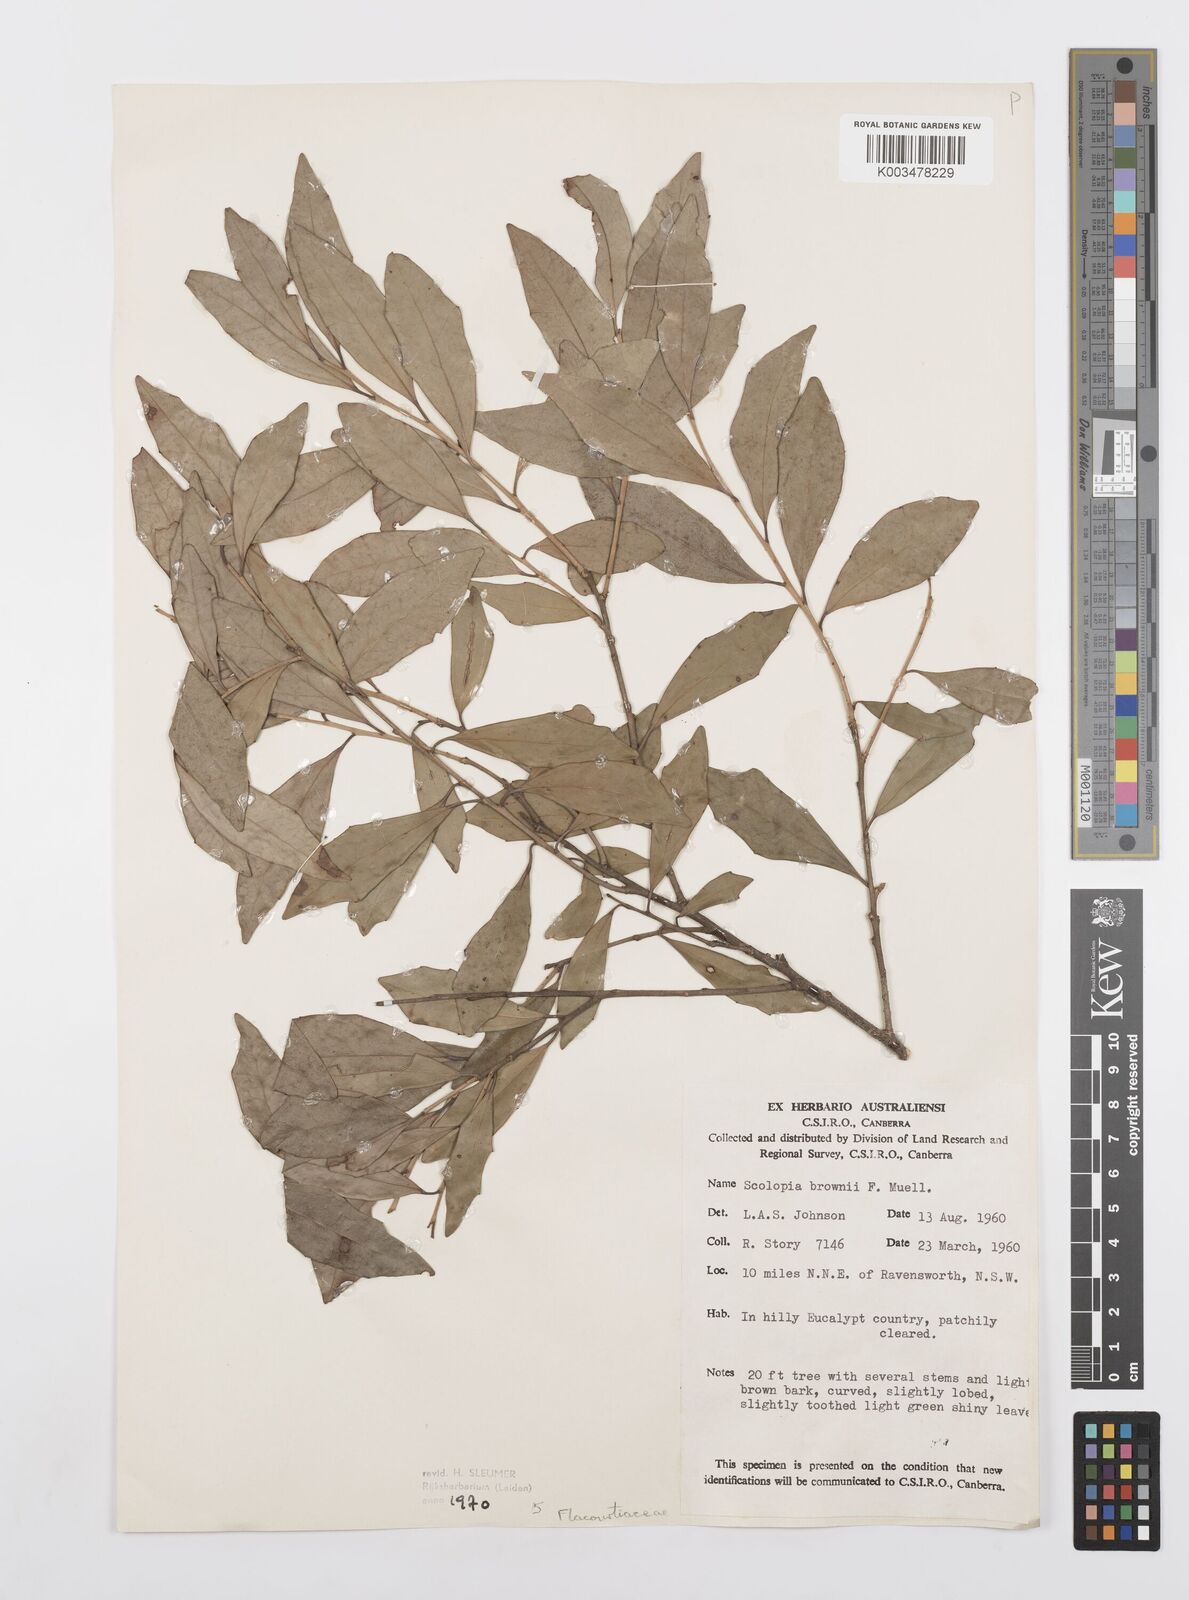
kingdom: Plantae
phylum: Tracheophyta
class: Magnoliopsida
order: Malpighiales
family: Salicaceae
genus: Scolopia
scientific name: Scolopia braunii
